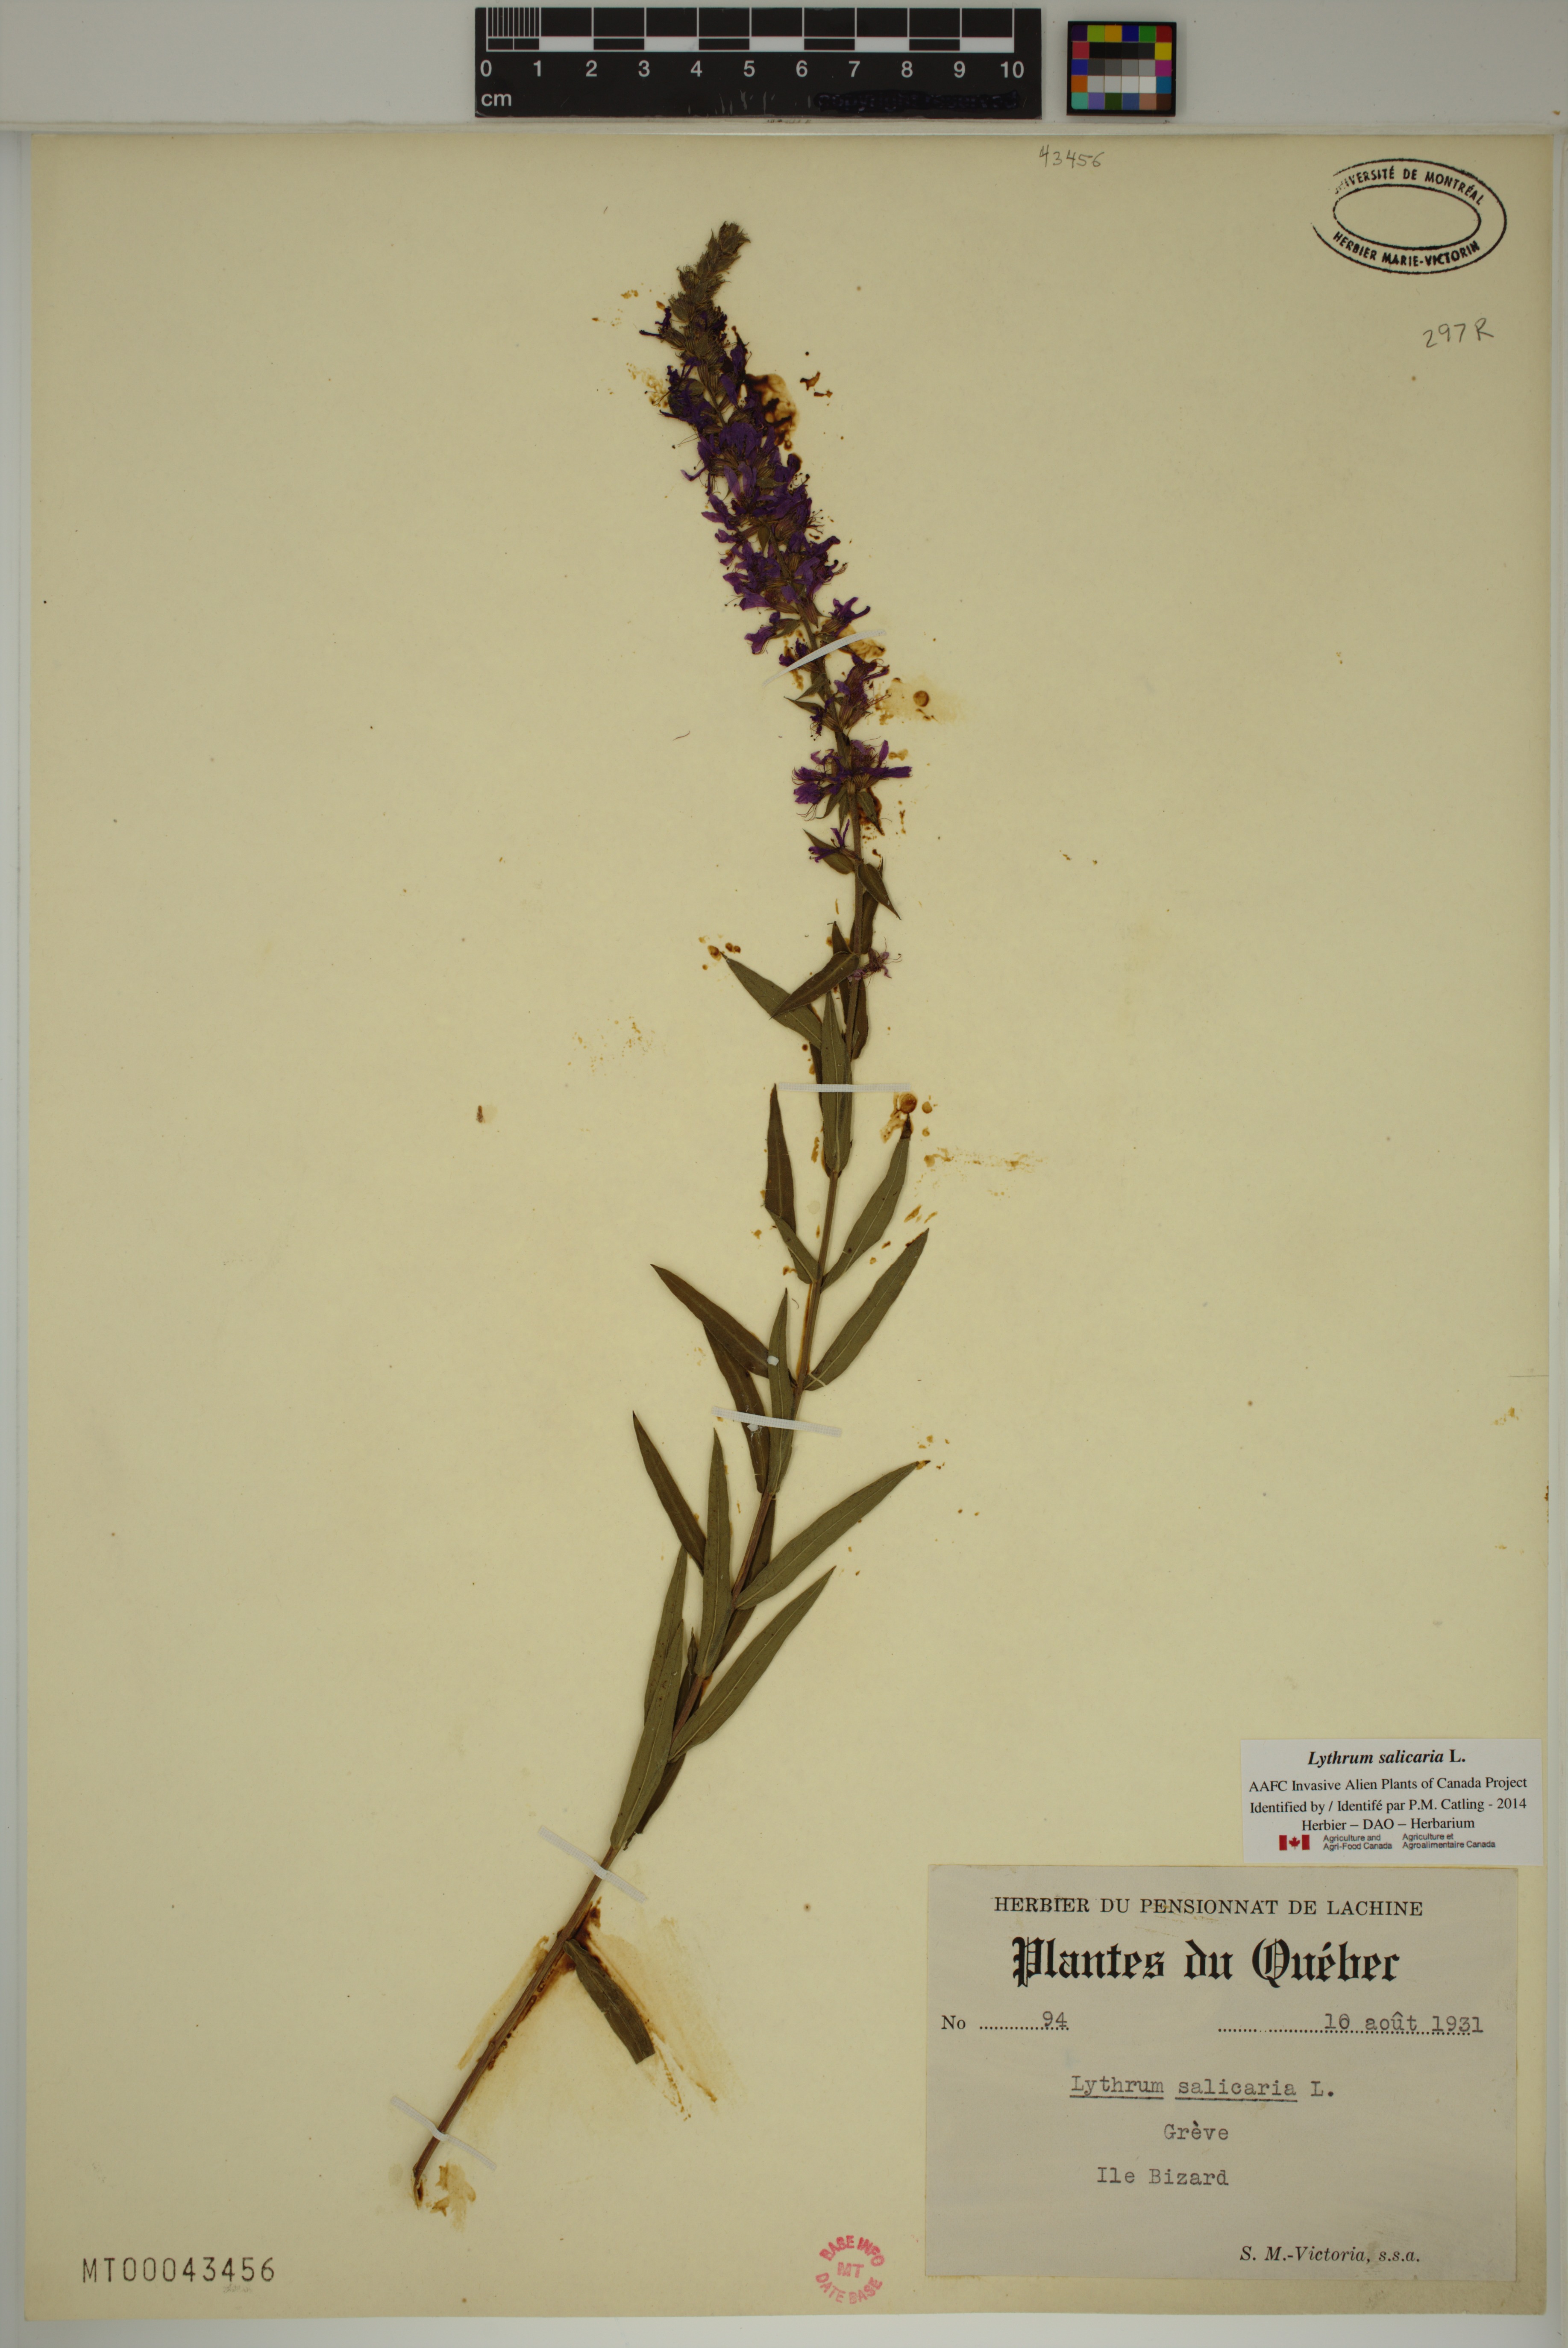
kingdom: Plantae
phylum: Tracheophyta
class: Magnoliopsida
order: Myrtales
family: Lythraceae
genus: Lythrum
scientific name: Lythrum salicaria
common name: Purple loosestrife
